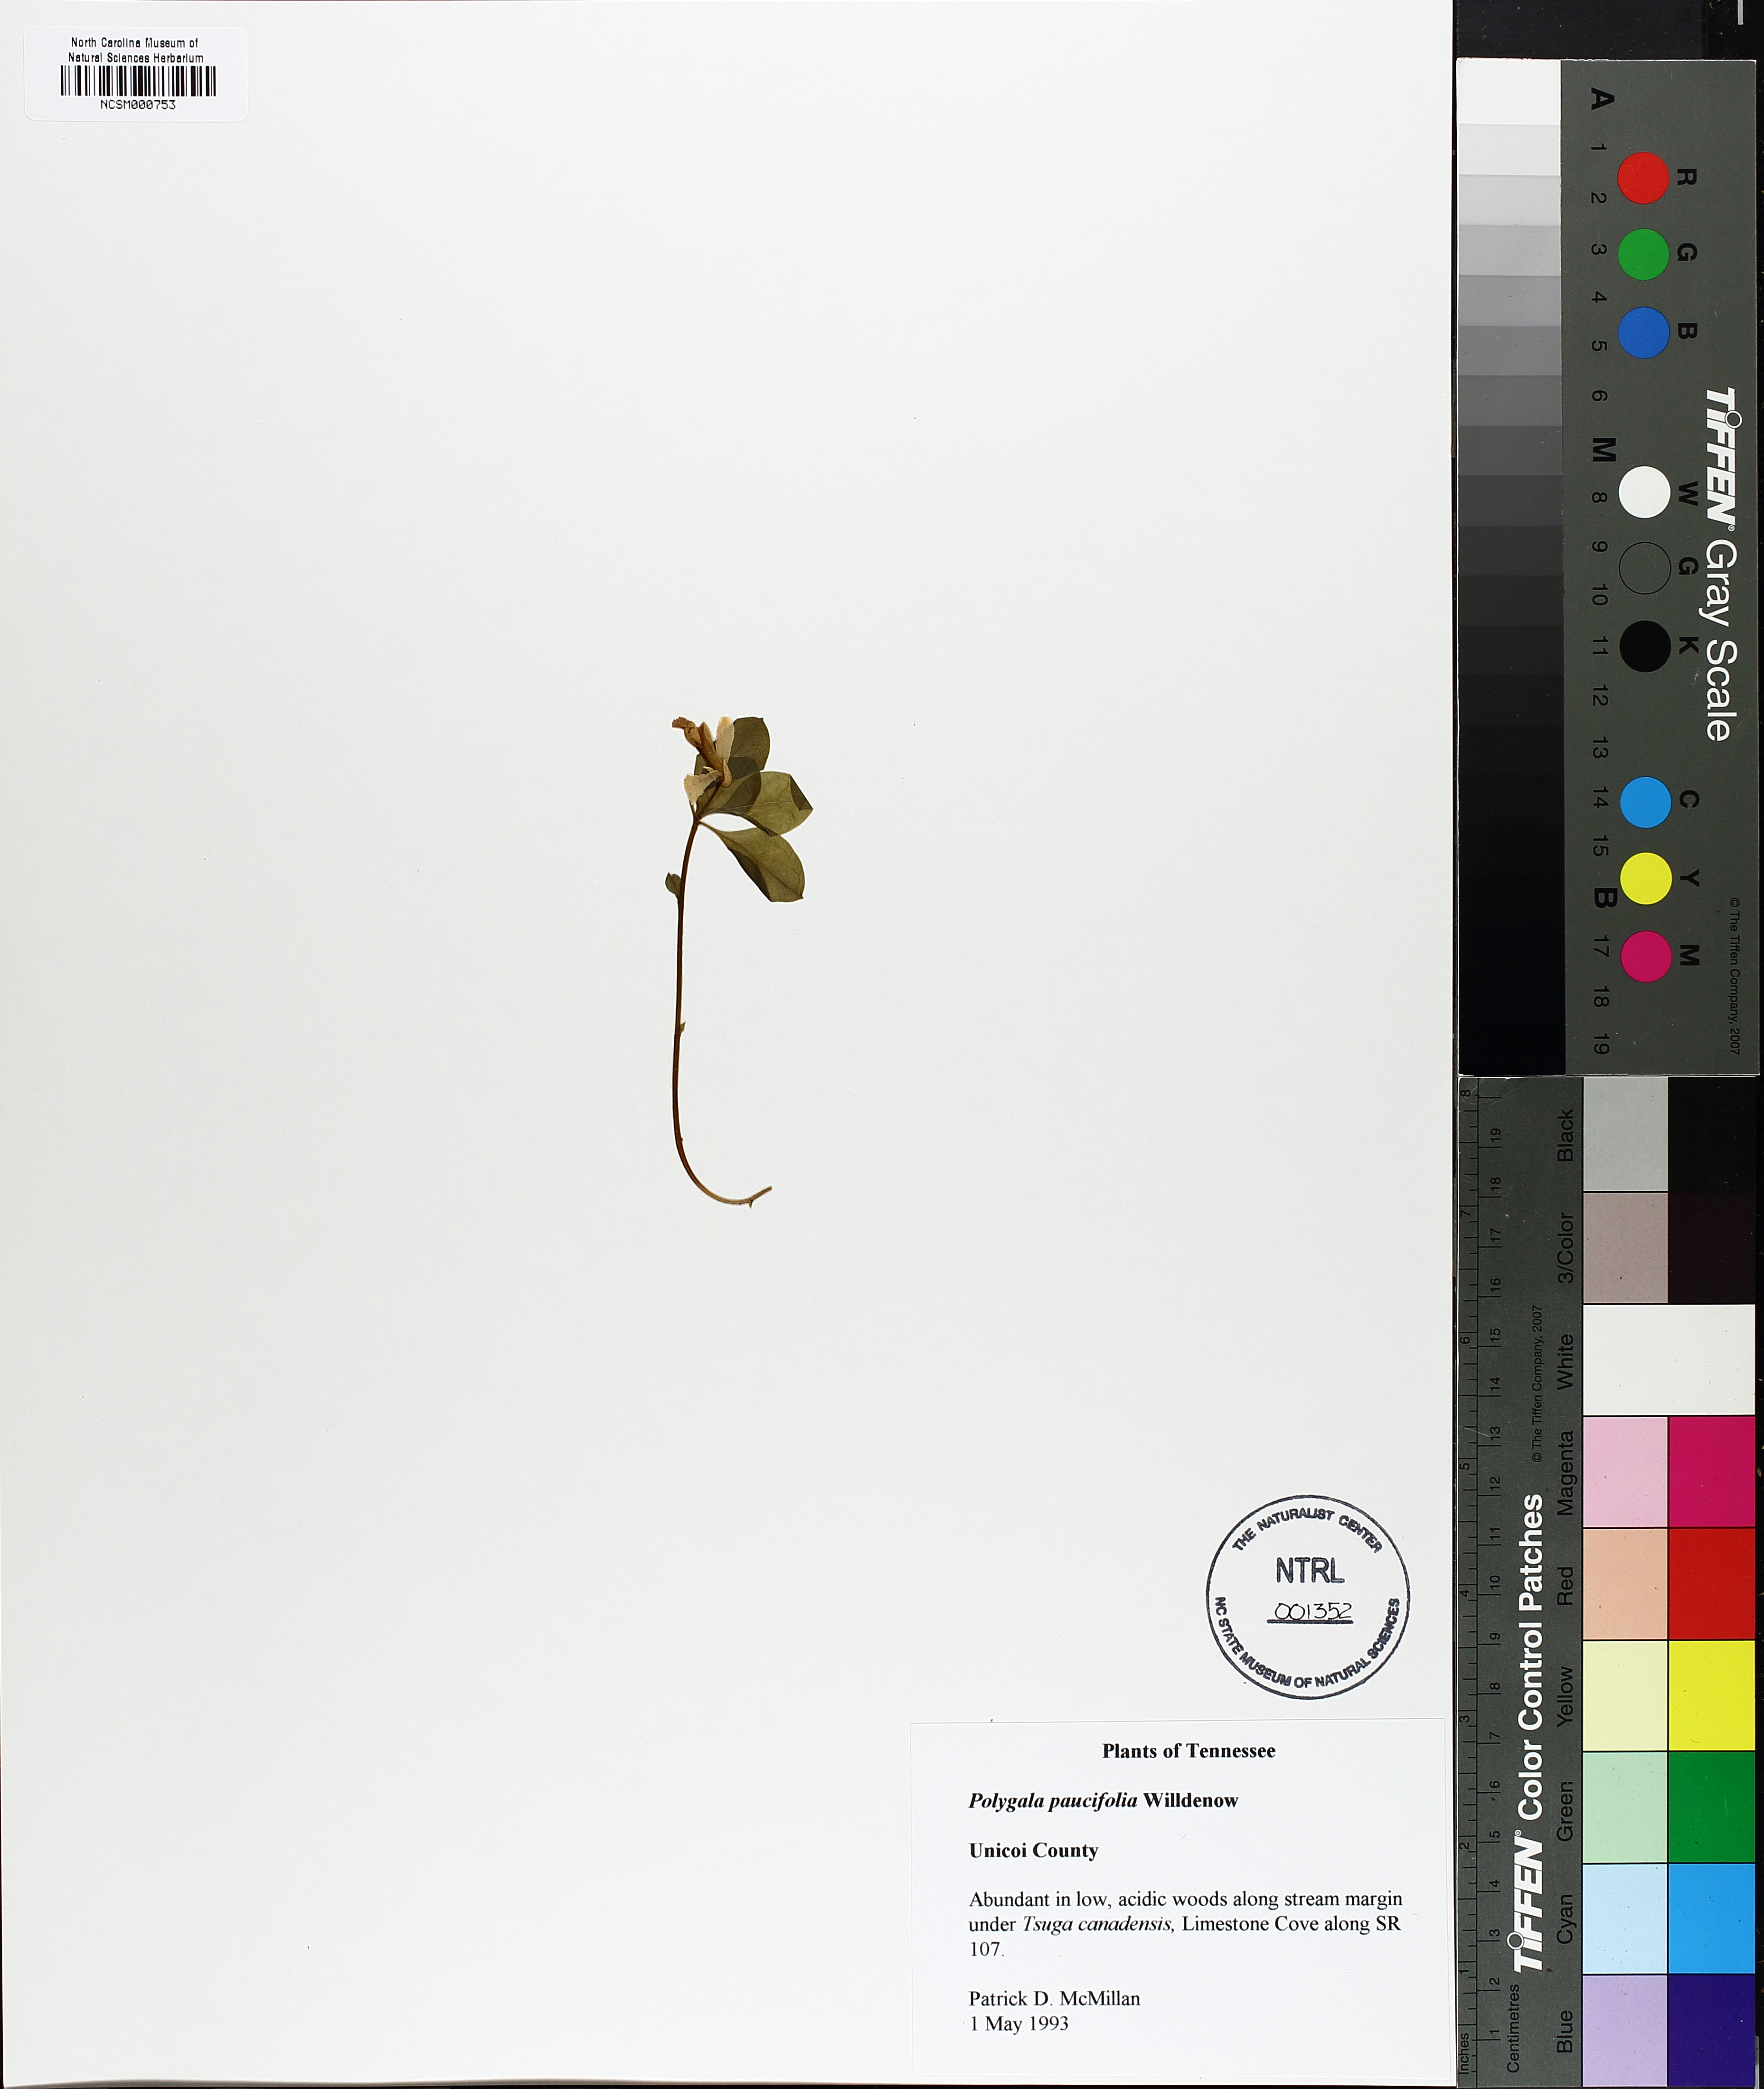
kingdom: Plantae
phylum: Tracheophyta
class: Magnoliopsida
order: Fabales
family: Polygalaceae
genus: Polygaloides
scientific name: Polygaloides paucifolia
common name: Bird-on-the-wing
